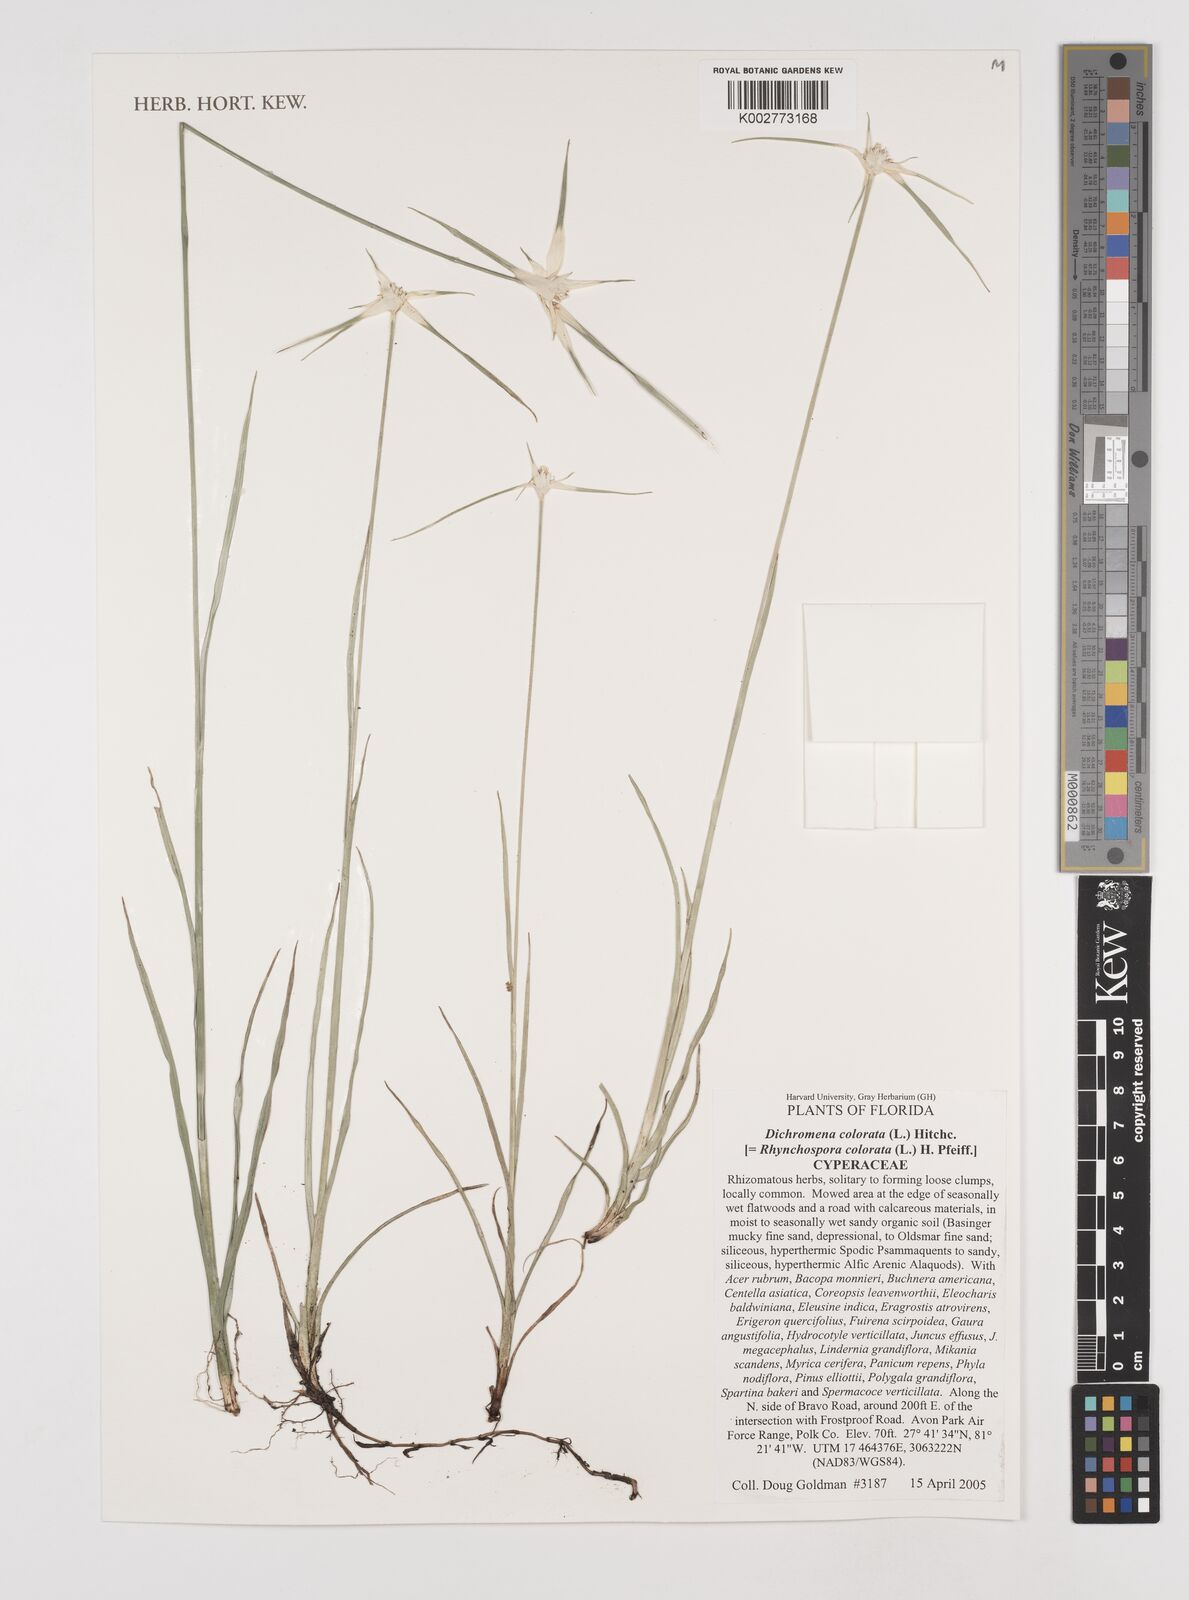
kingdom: Plantae
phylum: Tracheophyta
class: Liliopsida
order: Poales
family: Cyperaceae
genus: Rhynchospora
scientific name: Rhynchospora colorata
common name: Star sedge
